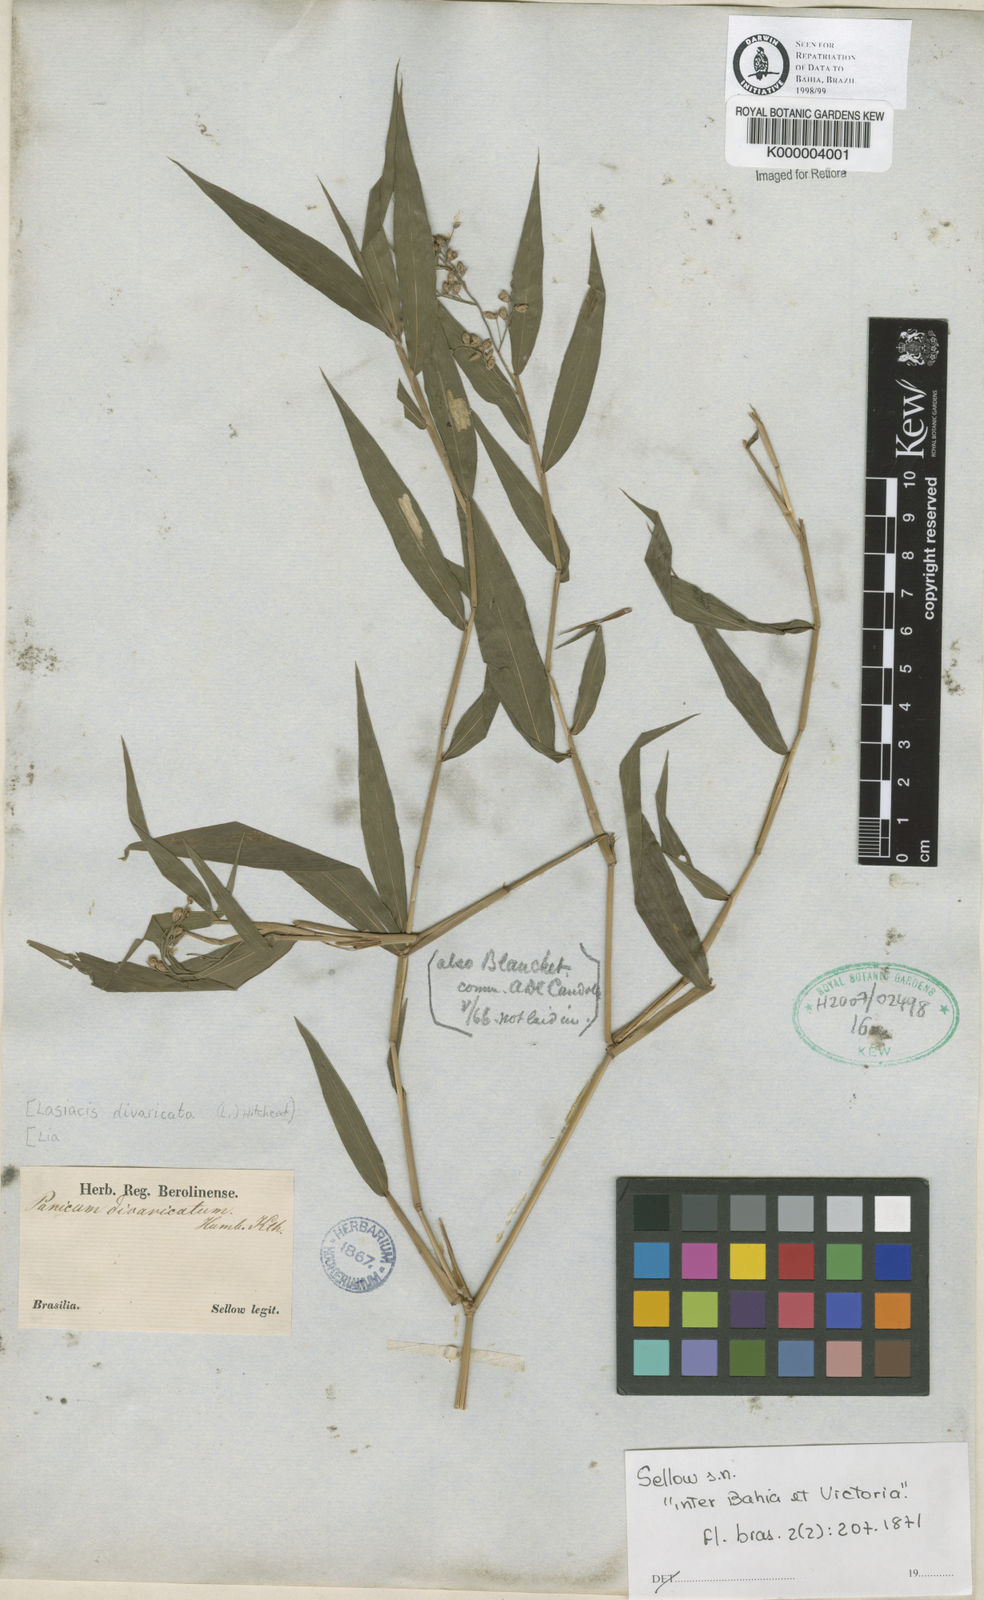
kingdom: Plantae
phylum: Tracheophyta
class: Liliopsida
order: Poales
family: Poaceae
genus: Lasiacis
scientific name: Lasiacis divaricata
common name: Smallcane
